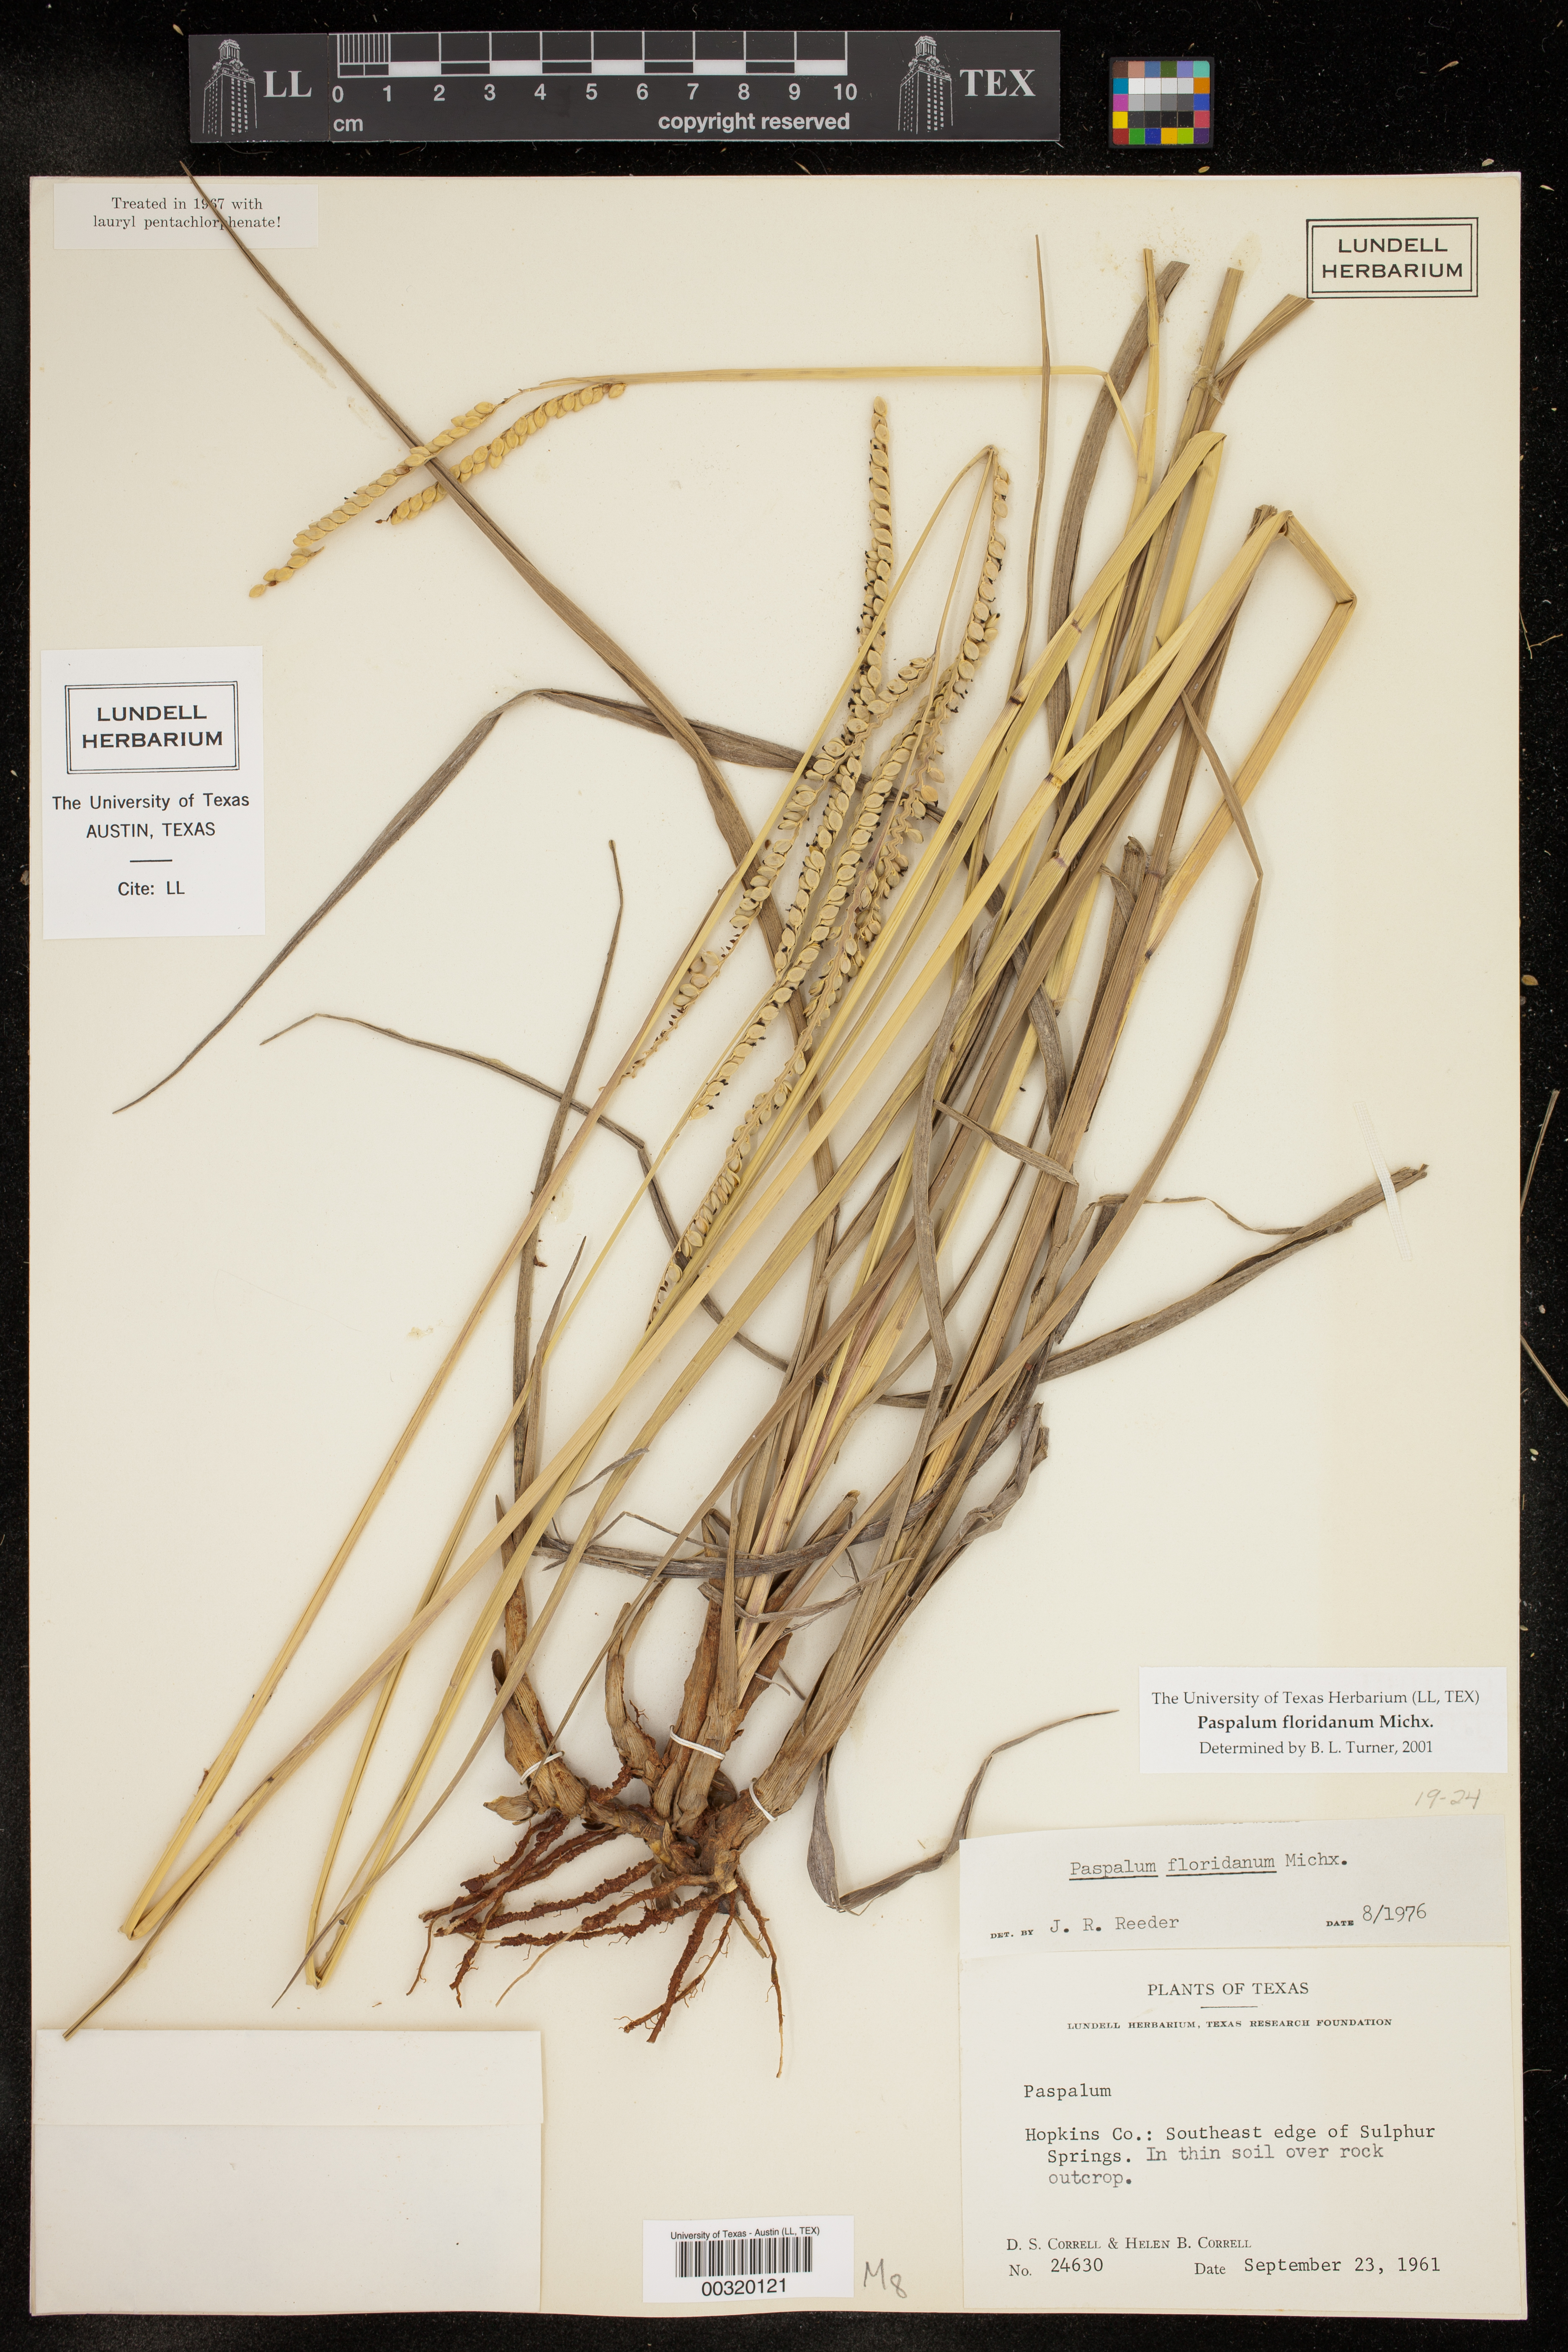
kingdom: Plantae
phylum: Tracheophyta
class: Liliopsida
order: Poales
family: Poaceae
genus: Paspalum
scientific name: Paspalum floridanum
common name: Florida paspalum
